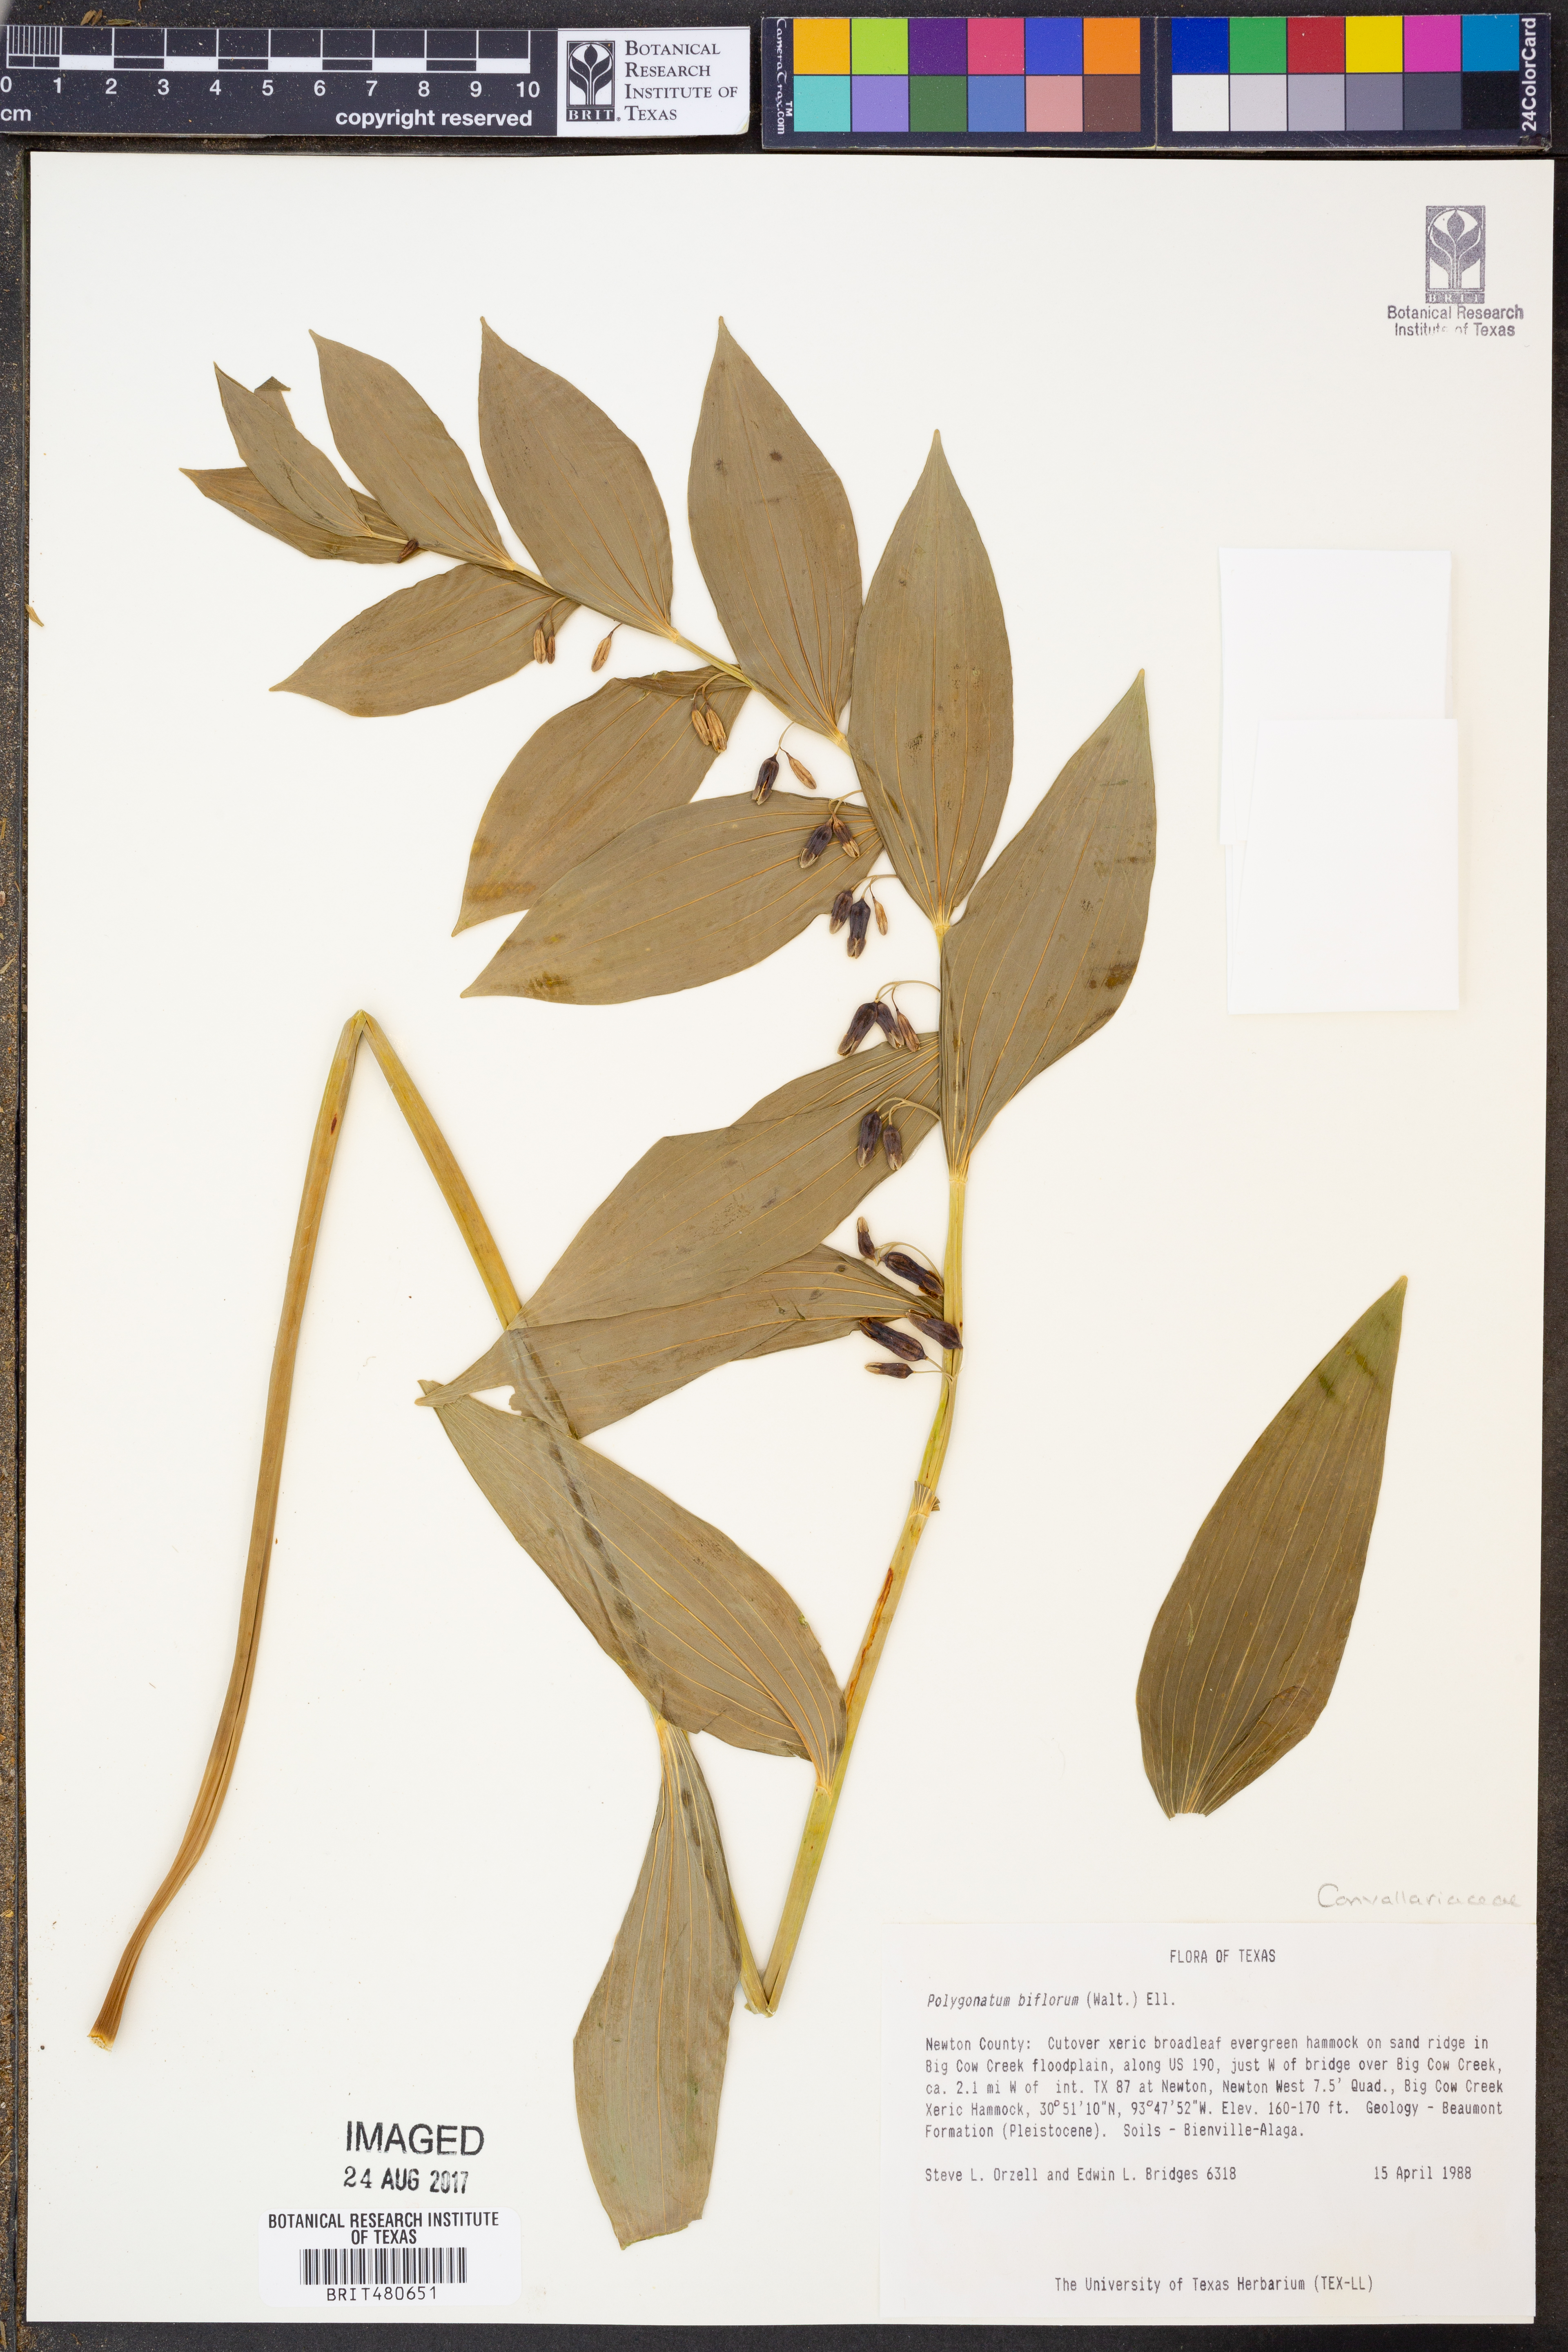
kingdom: Plantae
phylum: Tracheophyta
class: Liliopsida
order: Asparagales
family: Asparagaceae
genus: Polygonatum
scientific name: Polygonatum biflorum
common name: American solomon's-seal
